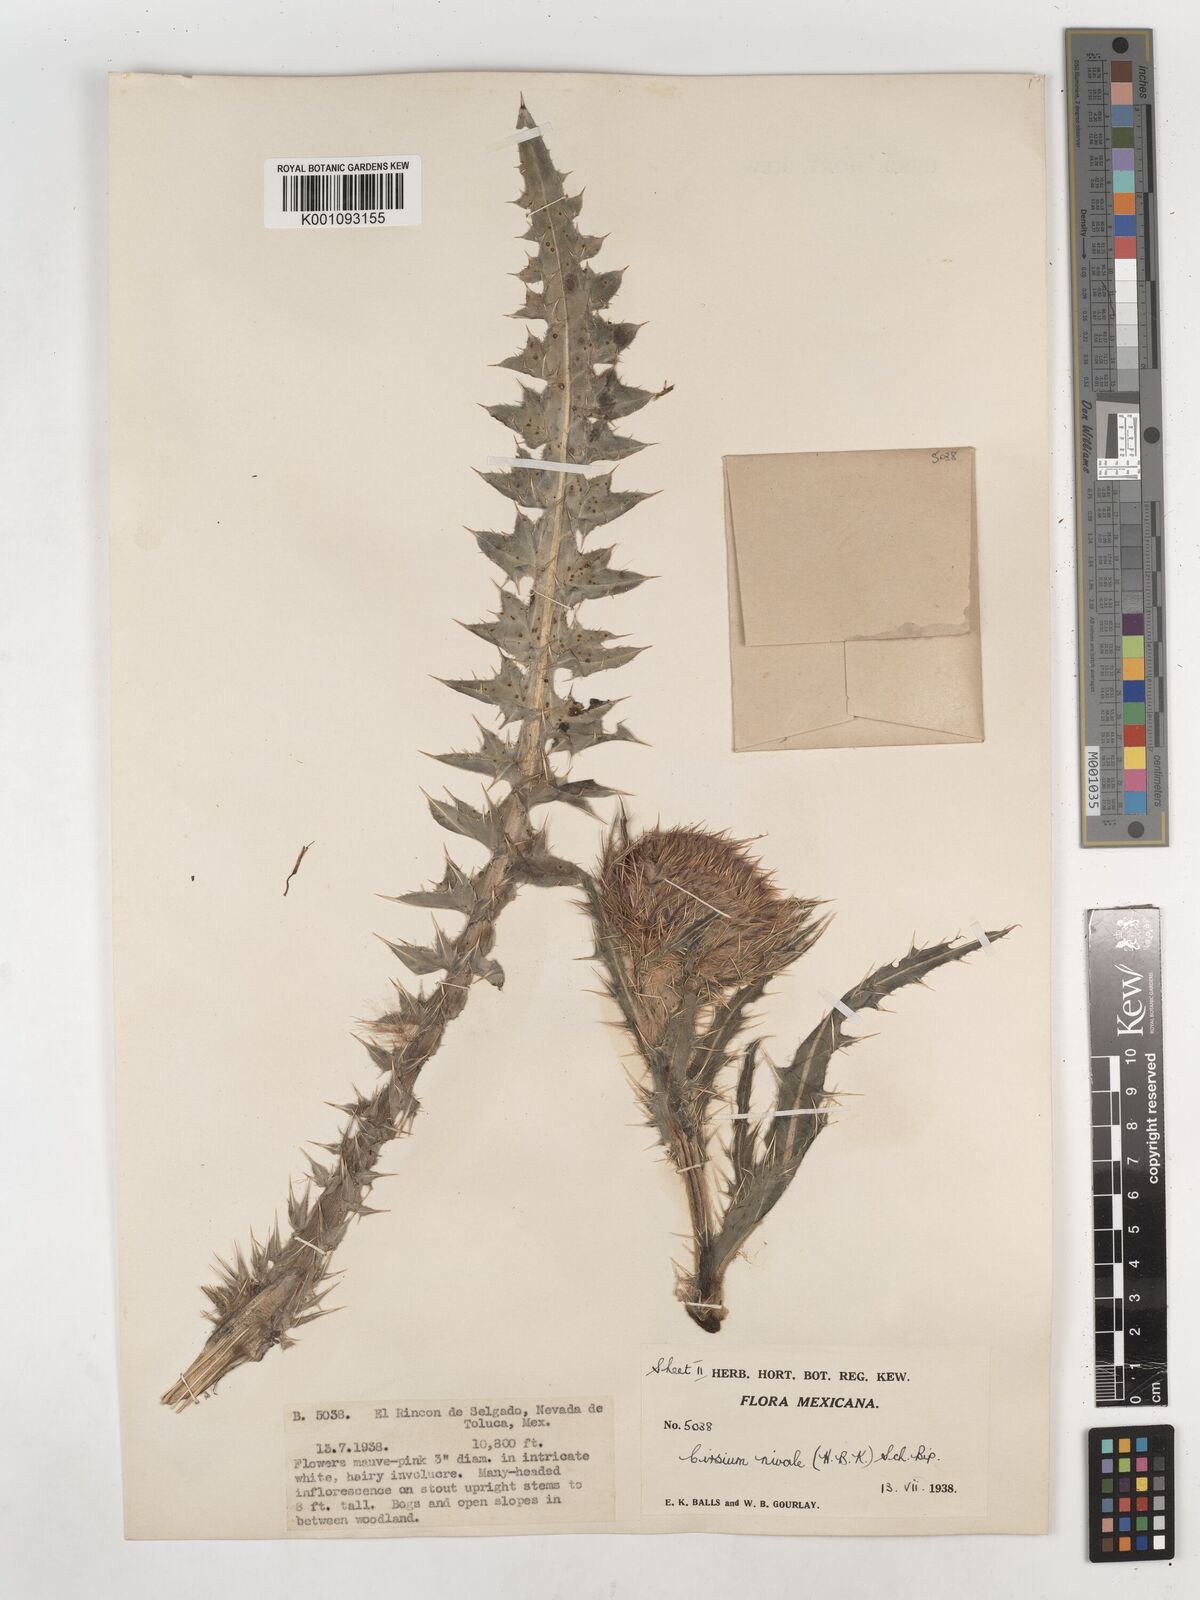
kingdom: Plantae
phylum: Tracheophyta
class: Magnoliopsida
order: Asterales
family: Asteraceae
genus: Cirsium
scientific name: Cirsium
